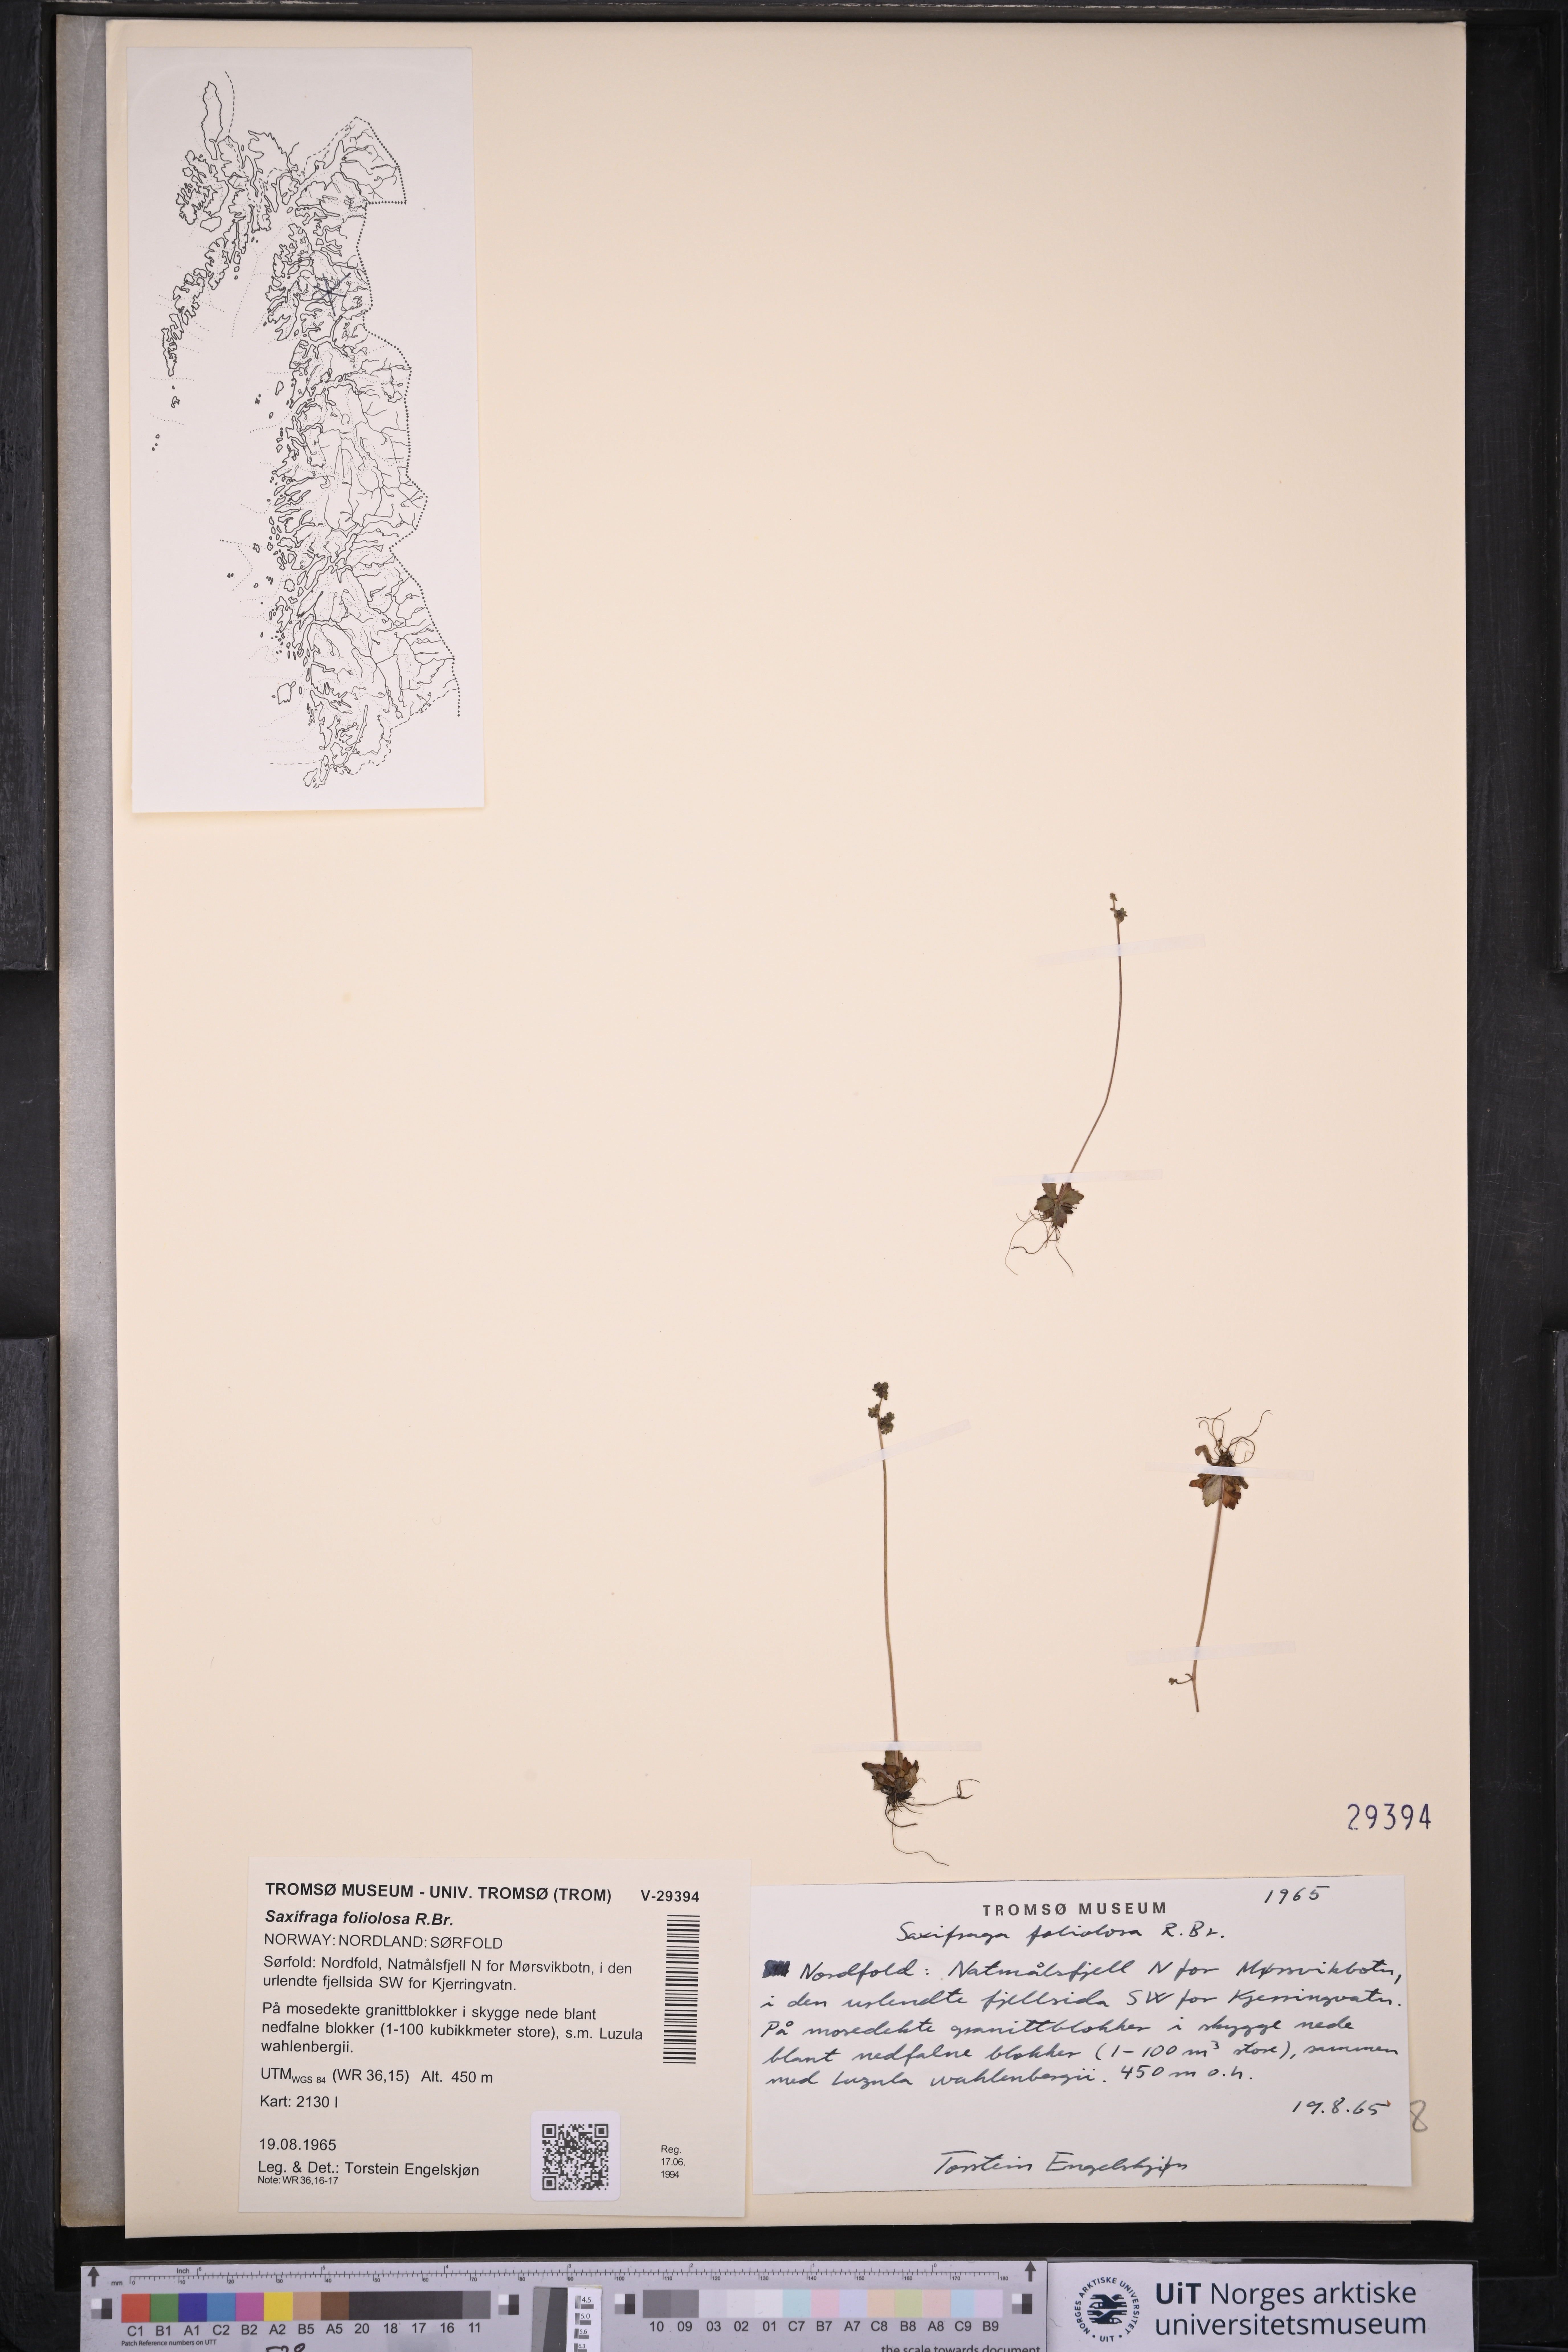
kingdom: Plantae
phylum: Tracheophyta
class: Magnoliopsida
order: Saxifragales
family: Saxifragaceae
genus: Micranthes
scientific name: Micranthes foliolosa
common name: Leafystem saxifrage
